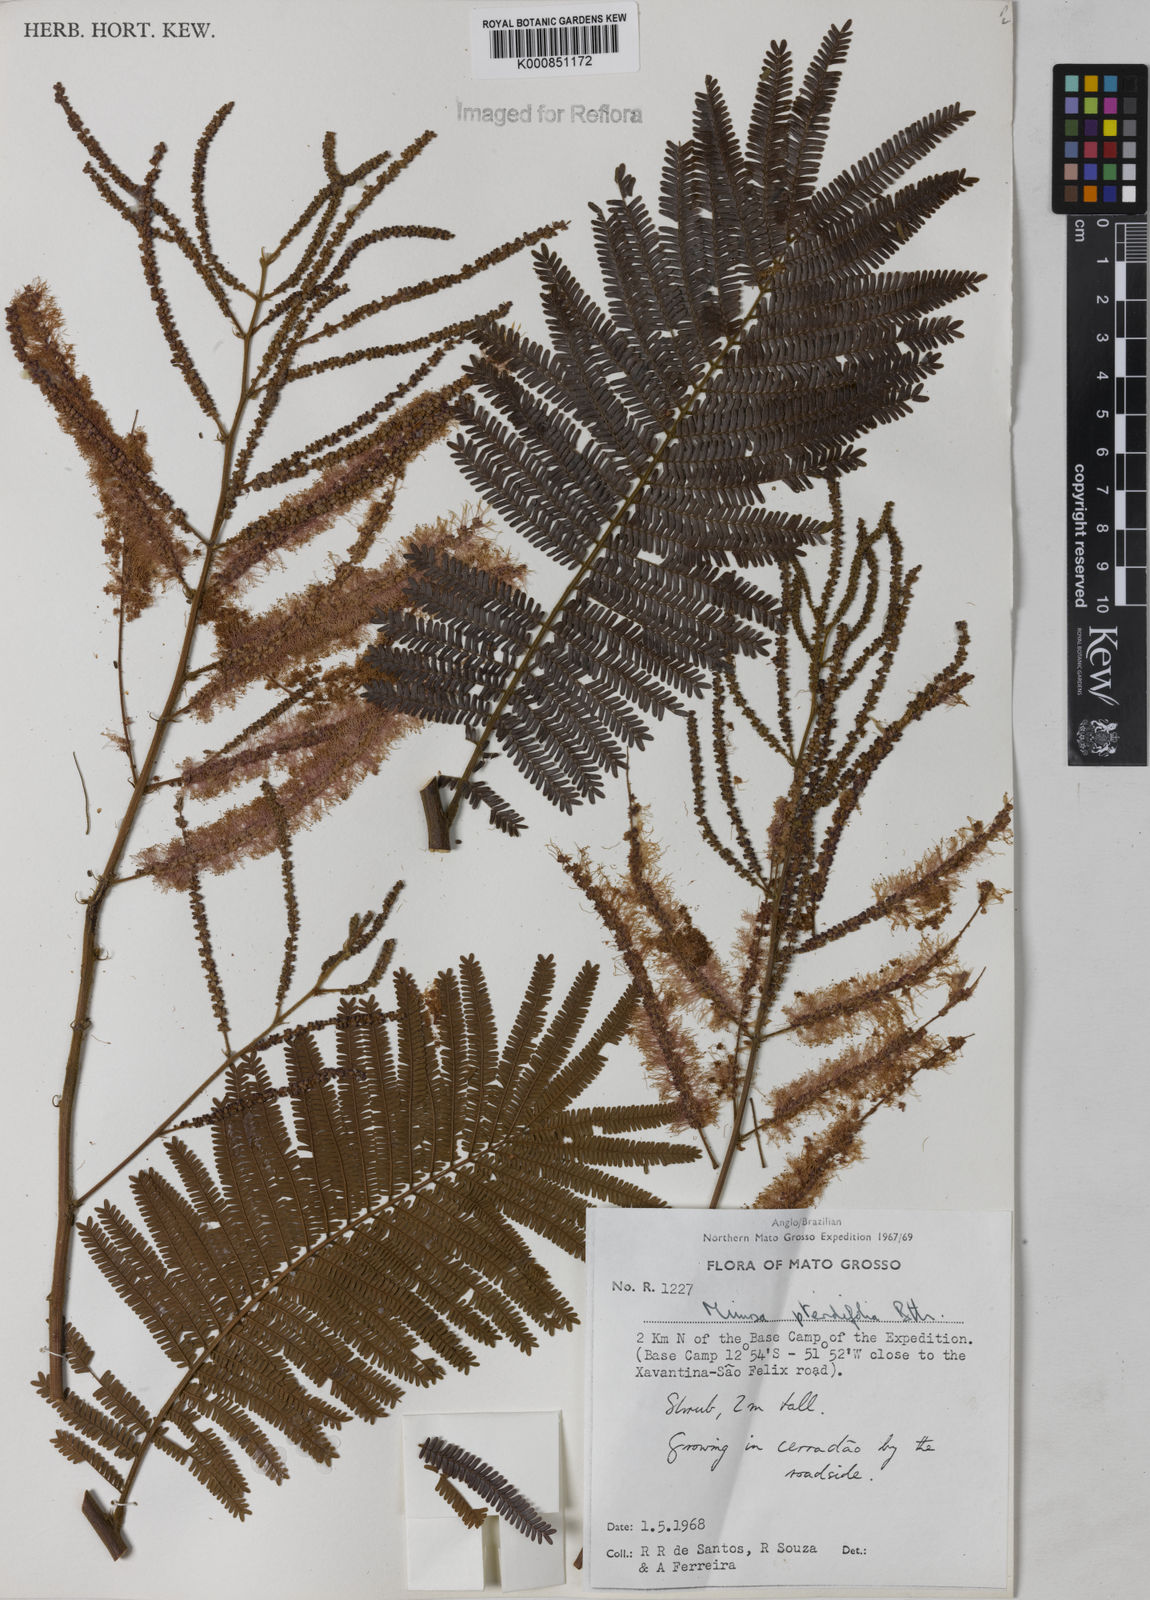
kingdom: Plantae
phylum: Tracheophyta
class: Magnoliopsida
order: Fabales
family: Fabaceae
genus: Mimosa
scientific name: Mimosa pteridifolia
